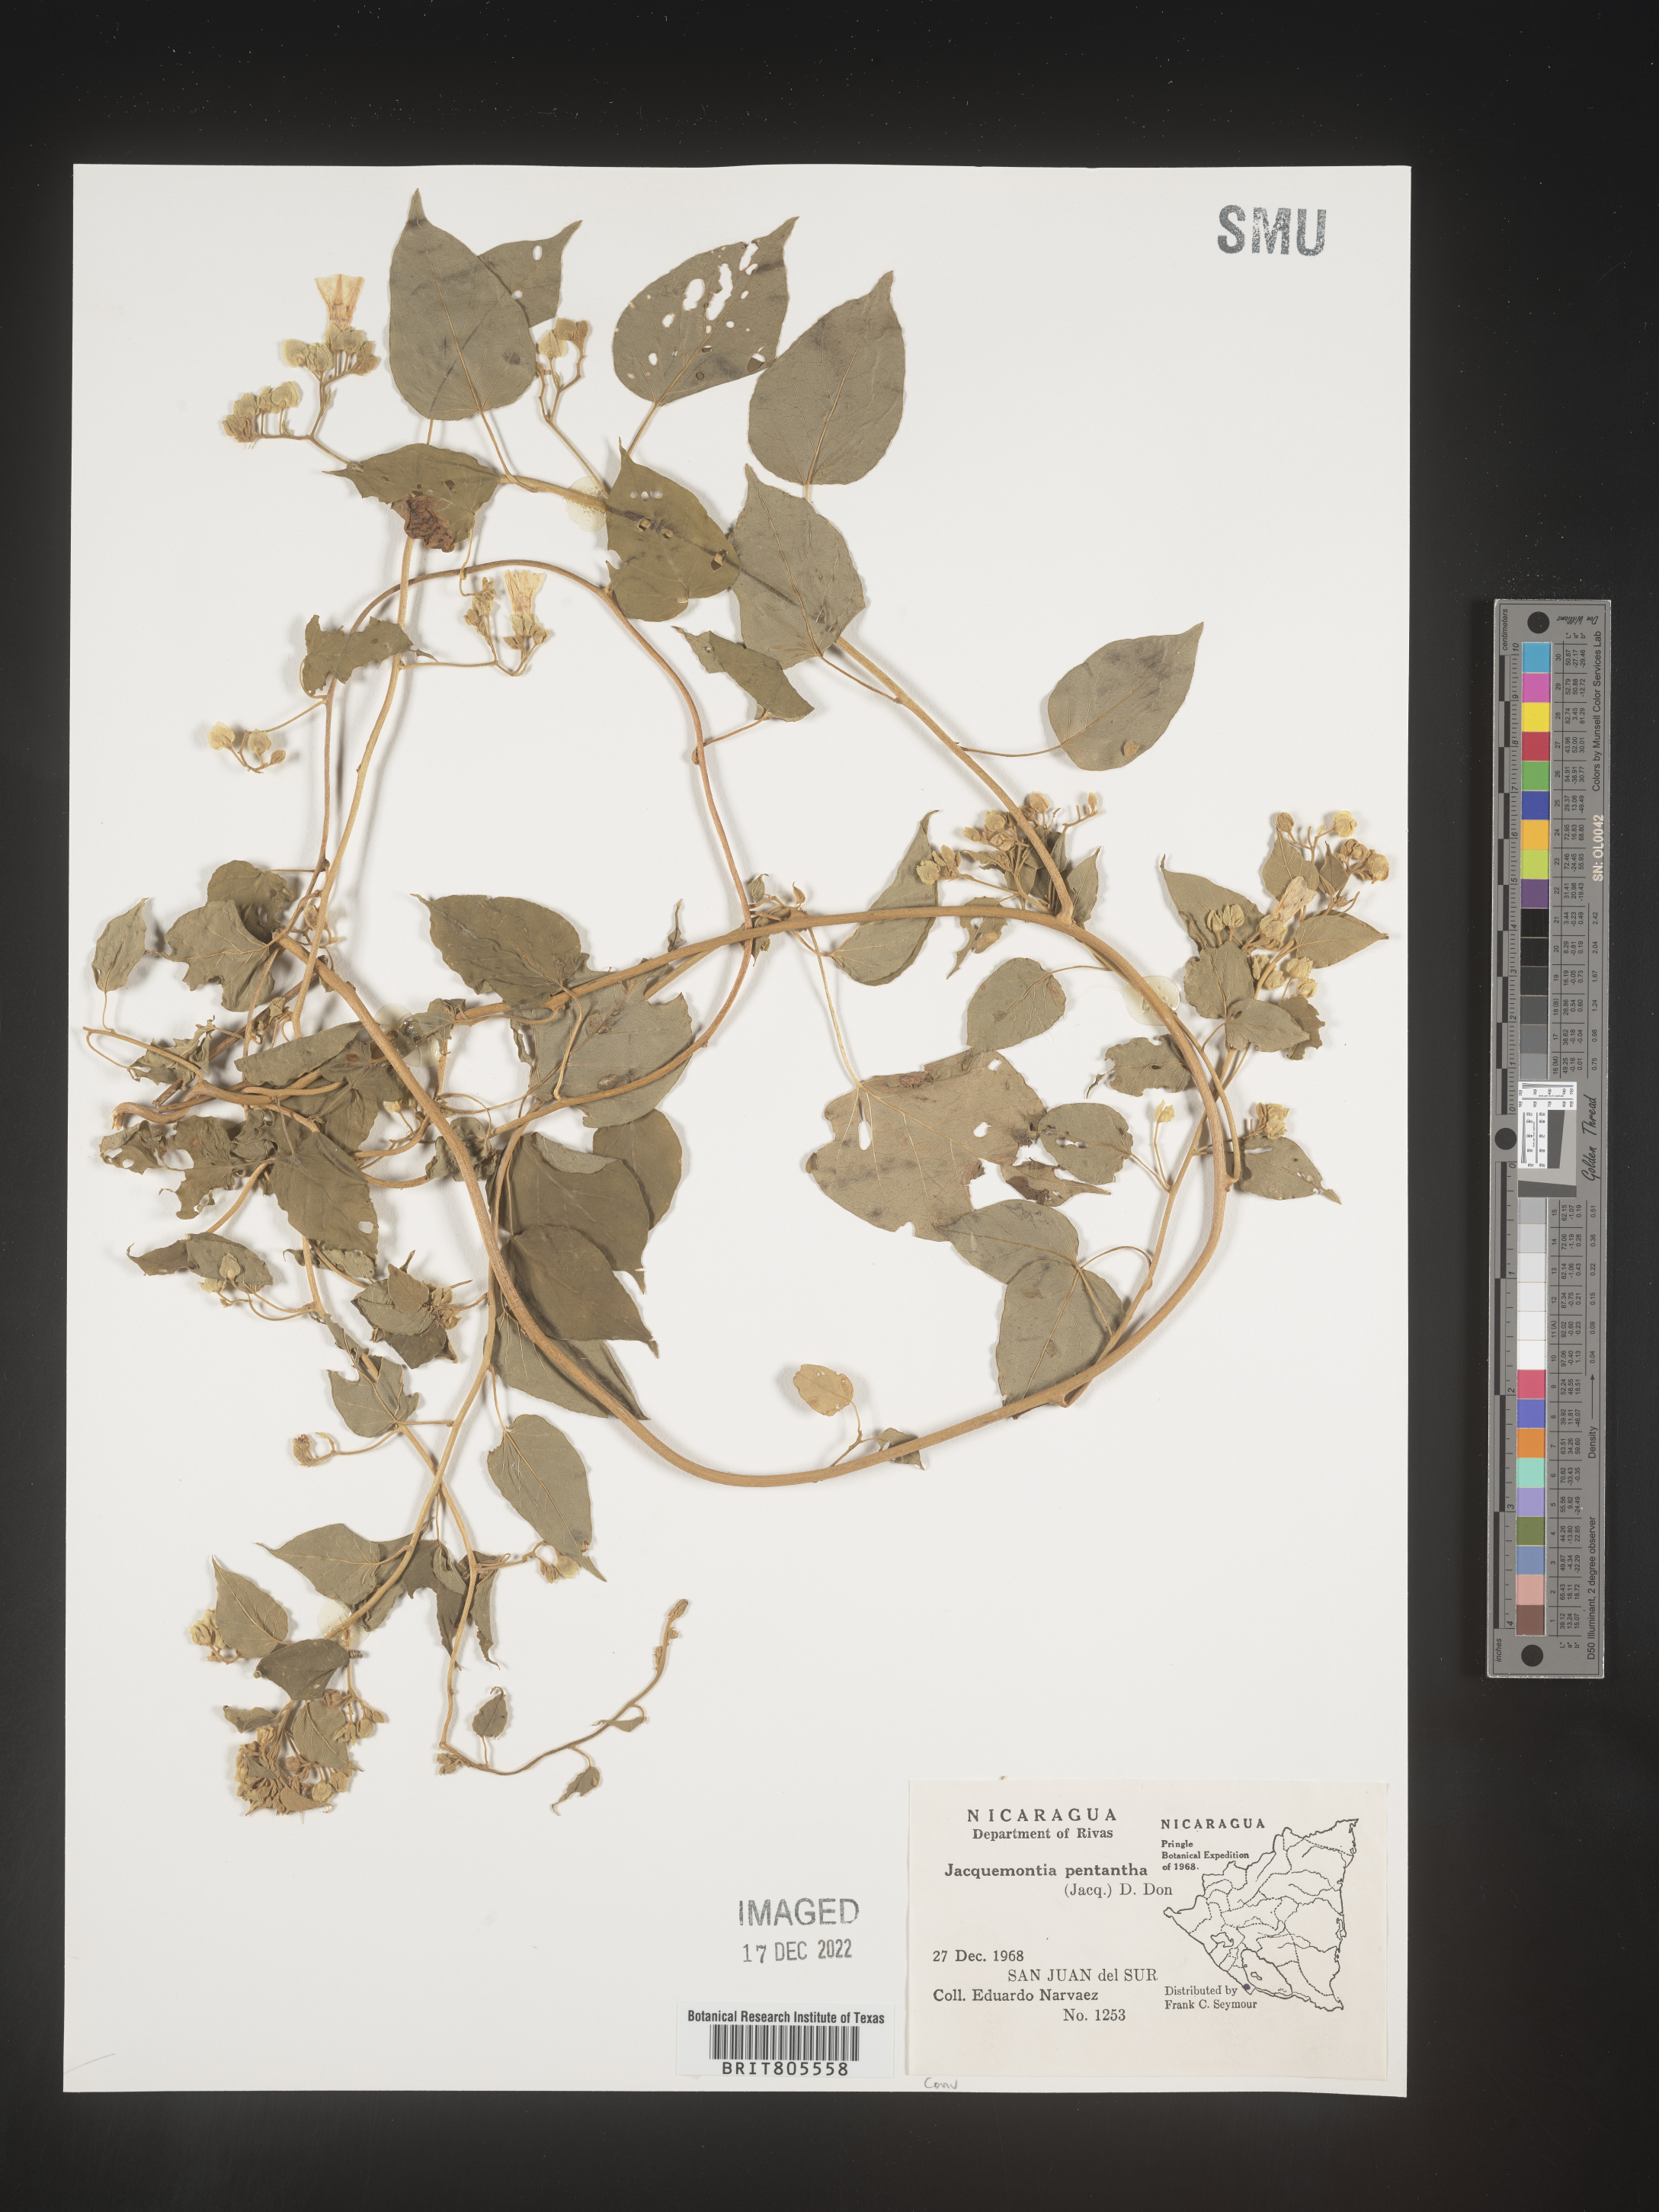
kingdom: Plantae
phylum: Tracheophyta
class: Magnoliopsida
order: Solanales
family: Convolvulaceae
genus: Jacquemontia
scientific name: Jacquemontia
